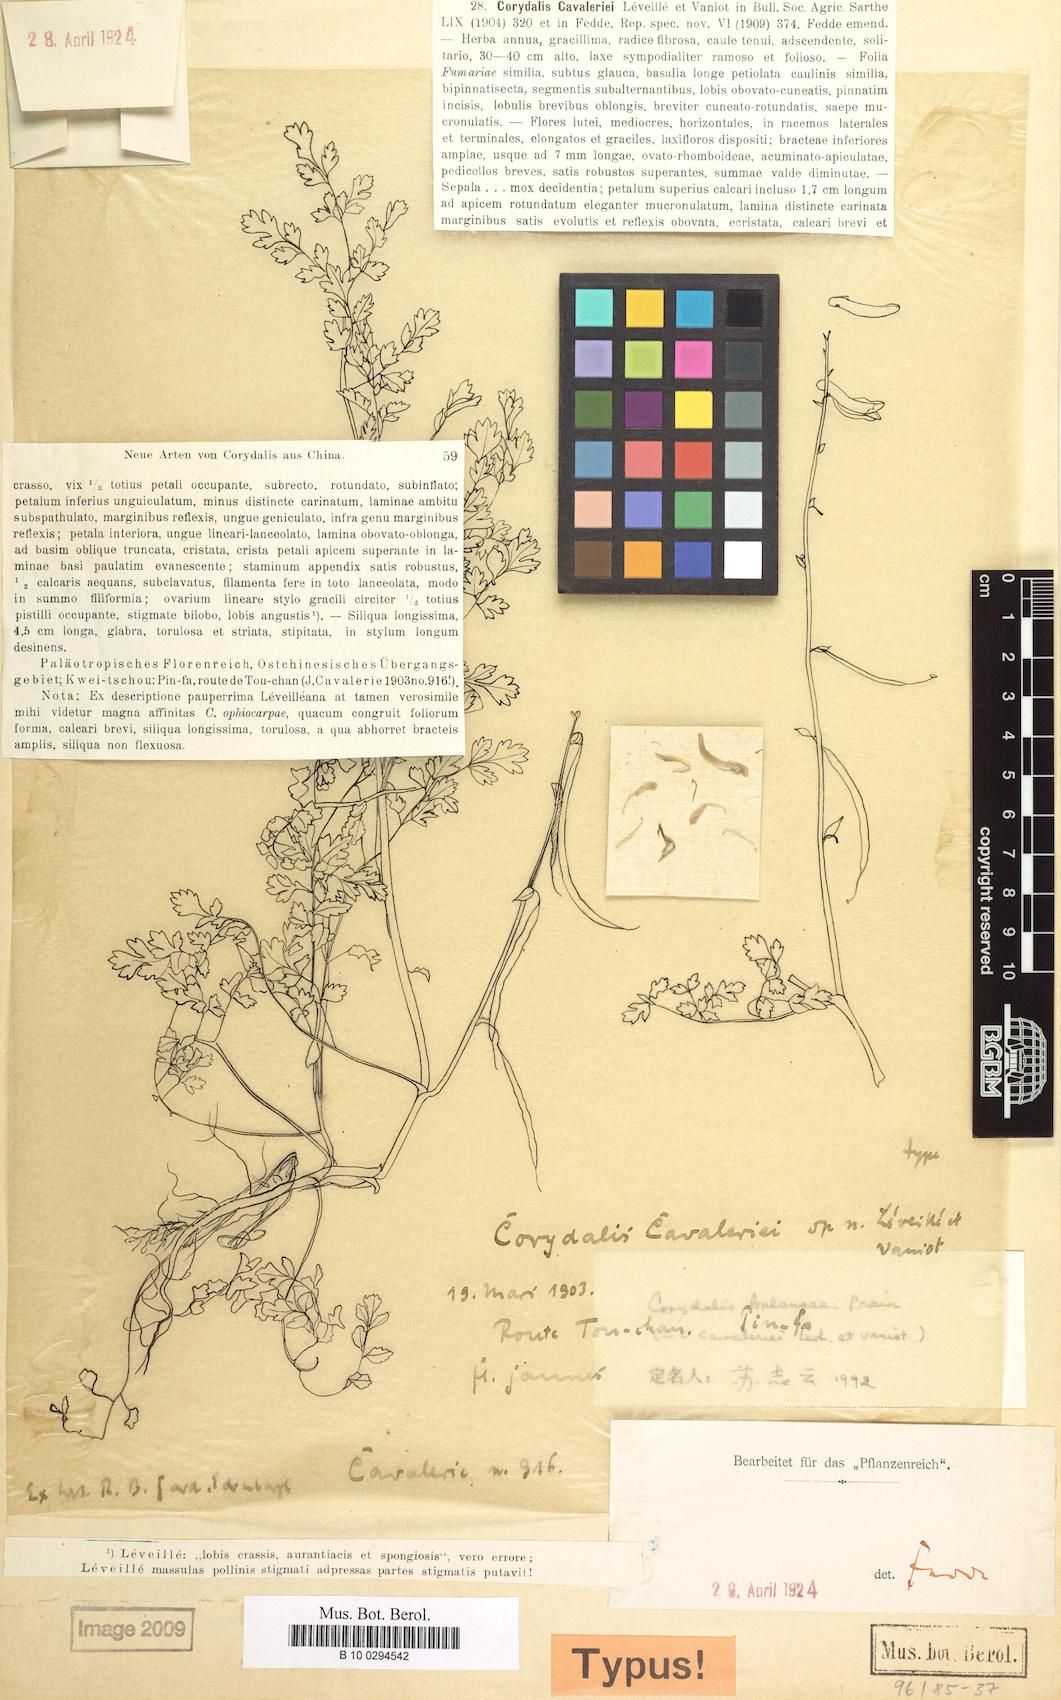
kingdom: Plantae
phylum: Tracheophyta
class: Magnoliopsida
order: Ranunculales
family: Papaveraceae
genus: Corydalis
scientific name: Corydalis balansae
